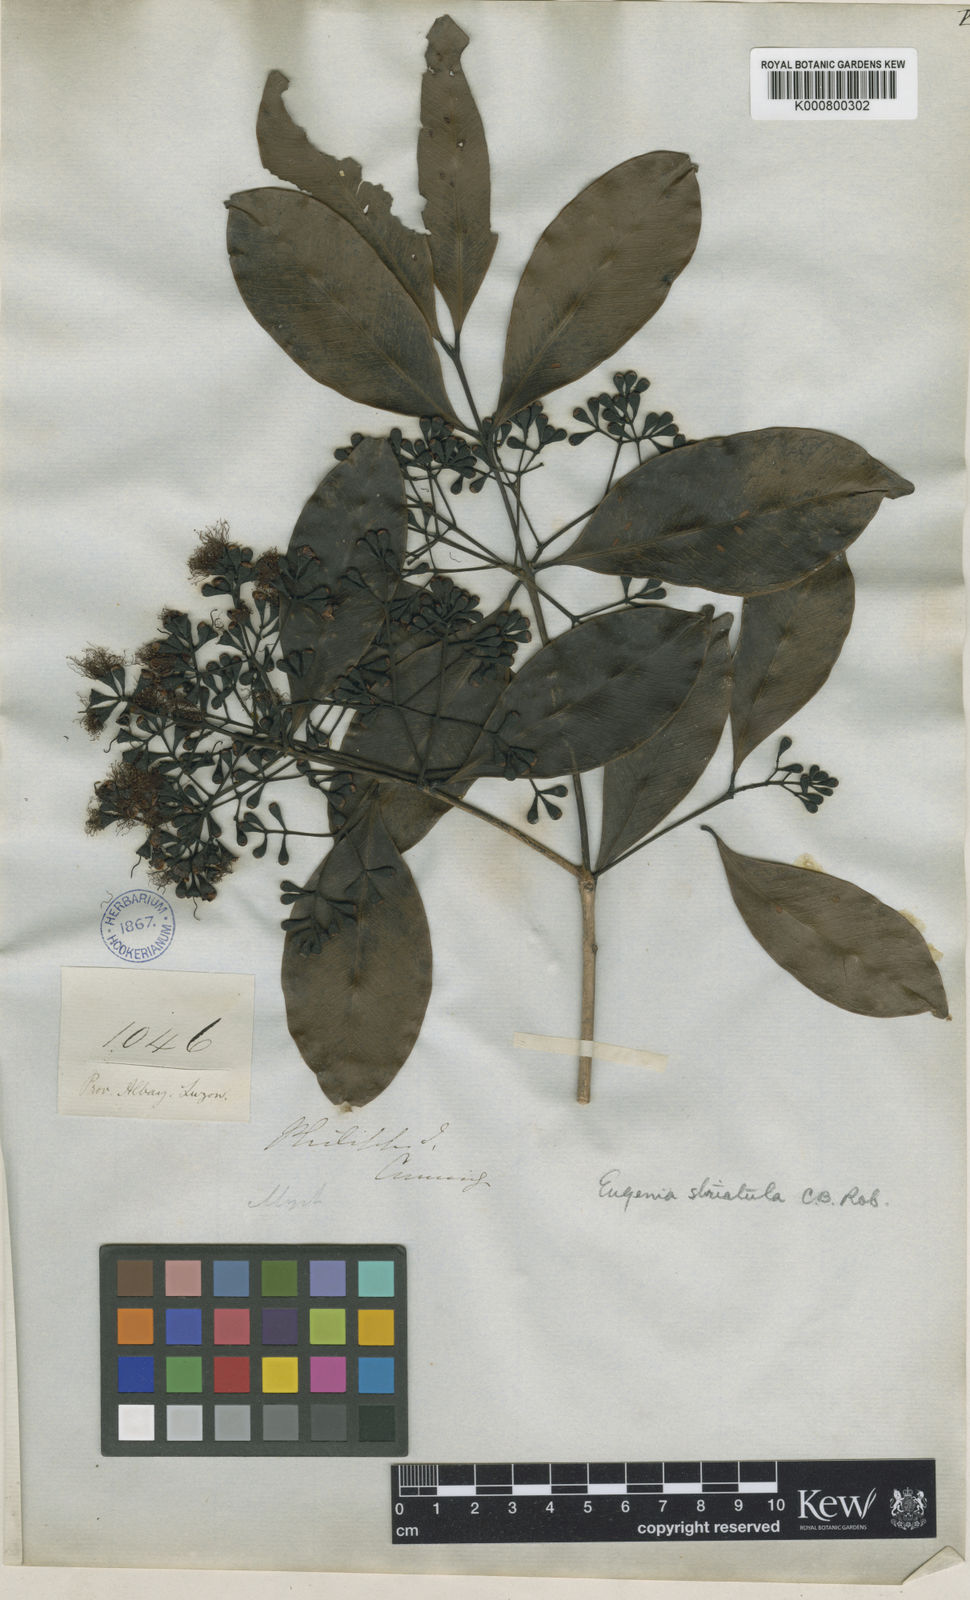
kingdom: Plantae
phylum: Tracheophyta
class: Magnoliopsida
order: Myrtales
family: Myrtaceae
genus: Syzygium
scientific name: Syzygium striatulum
